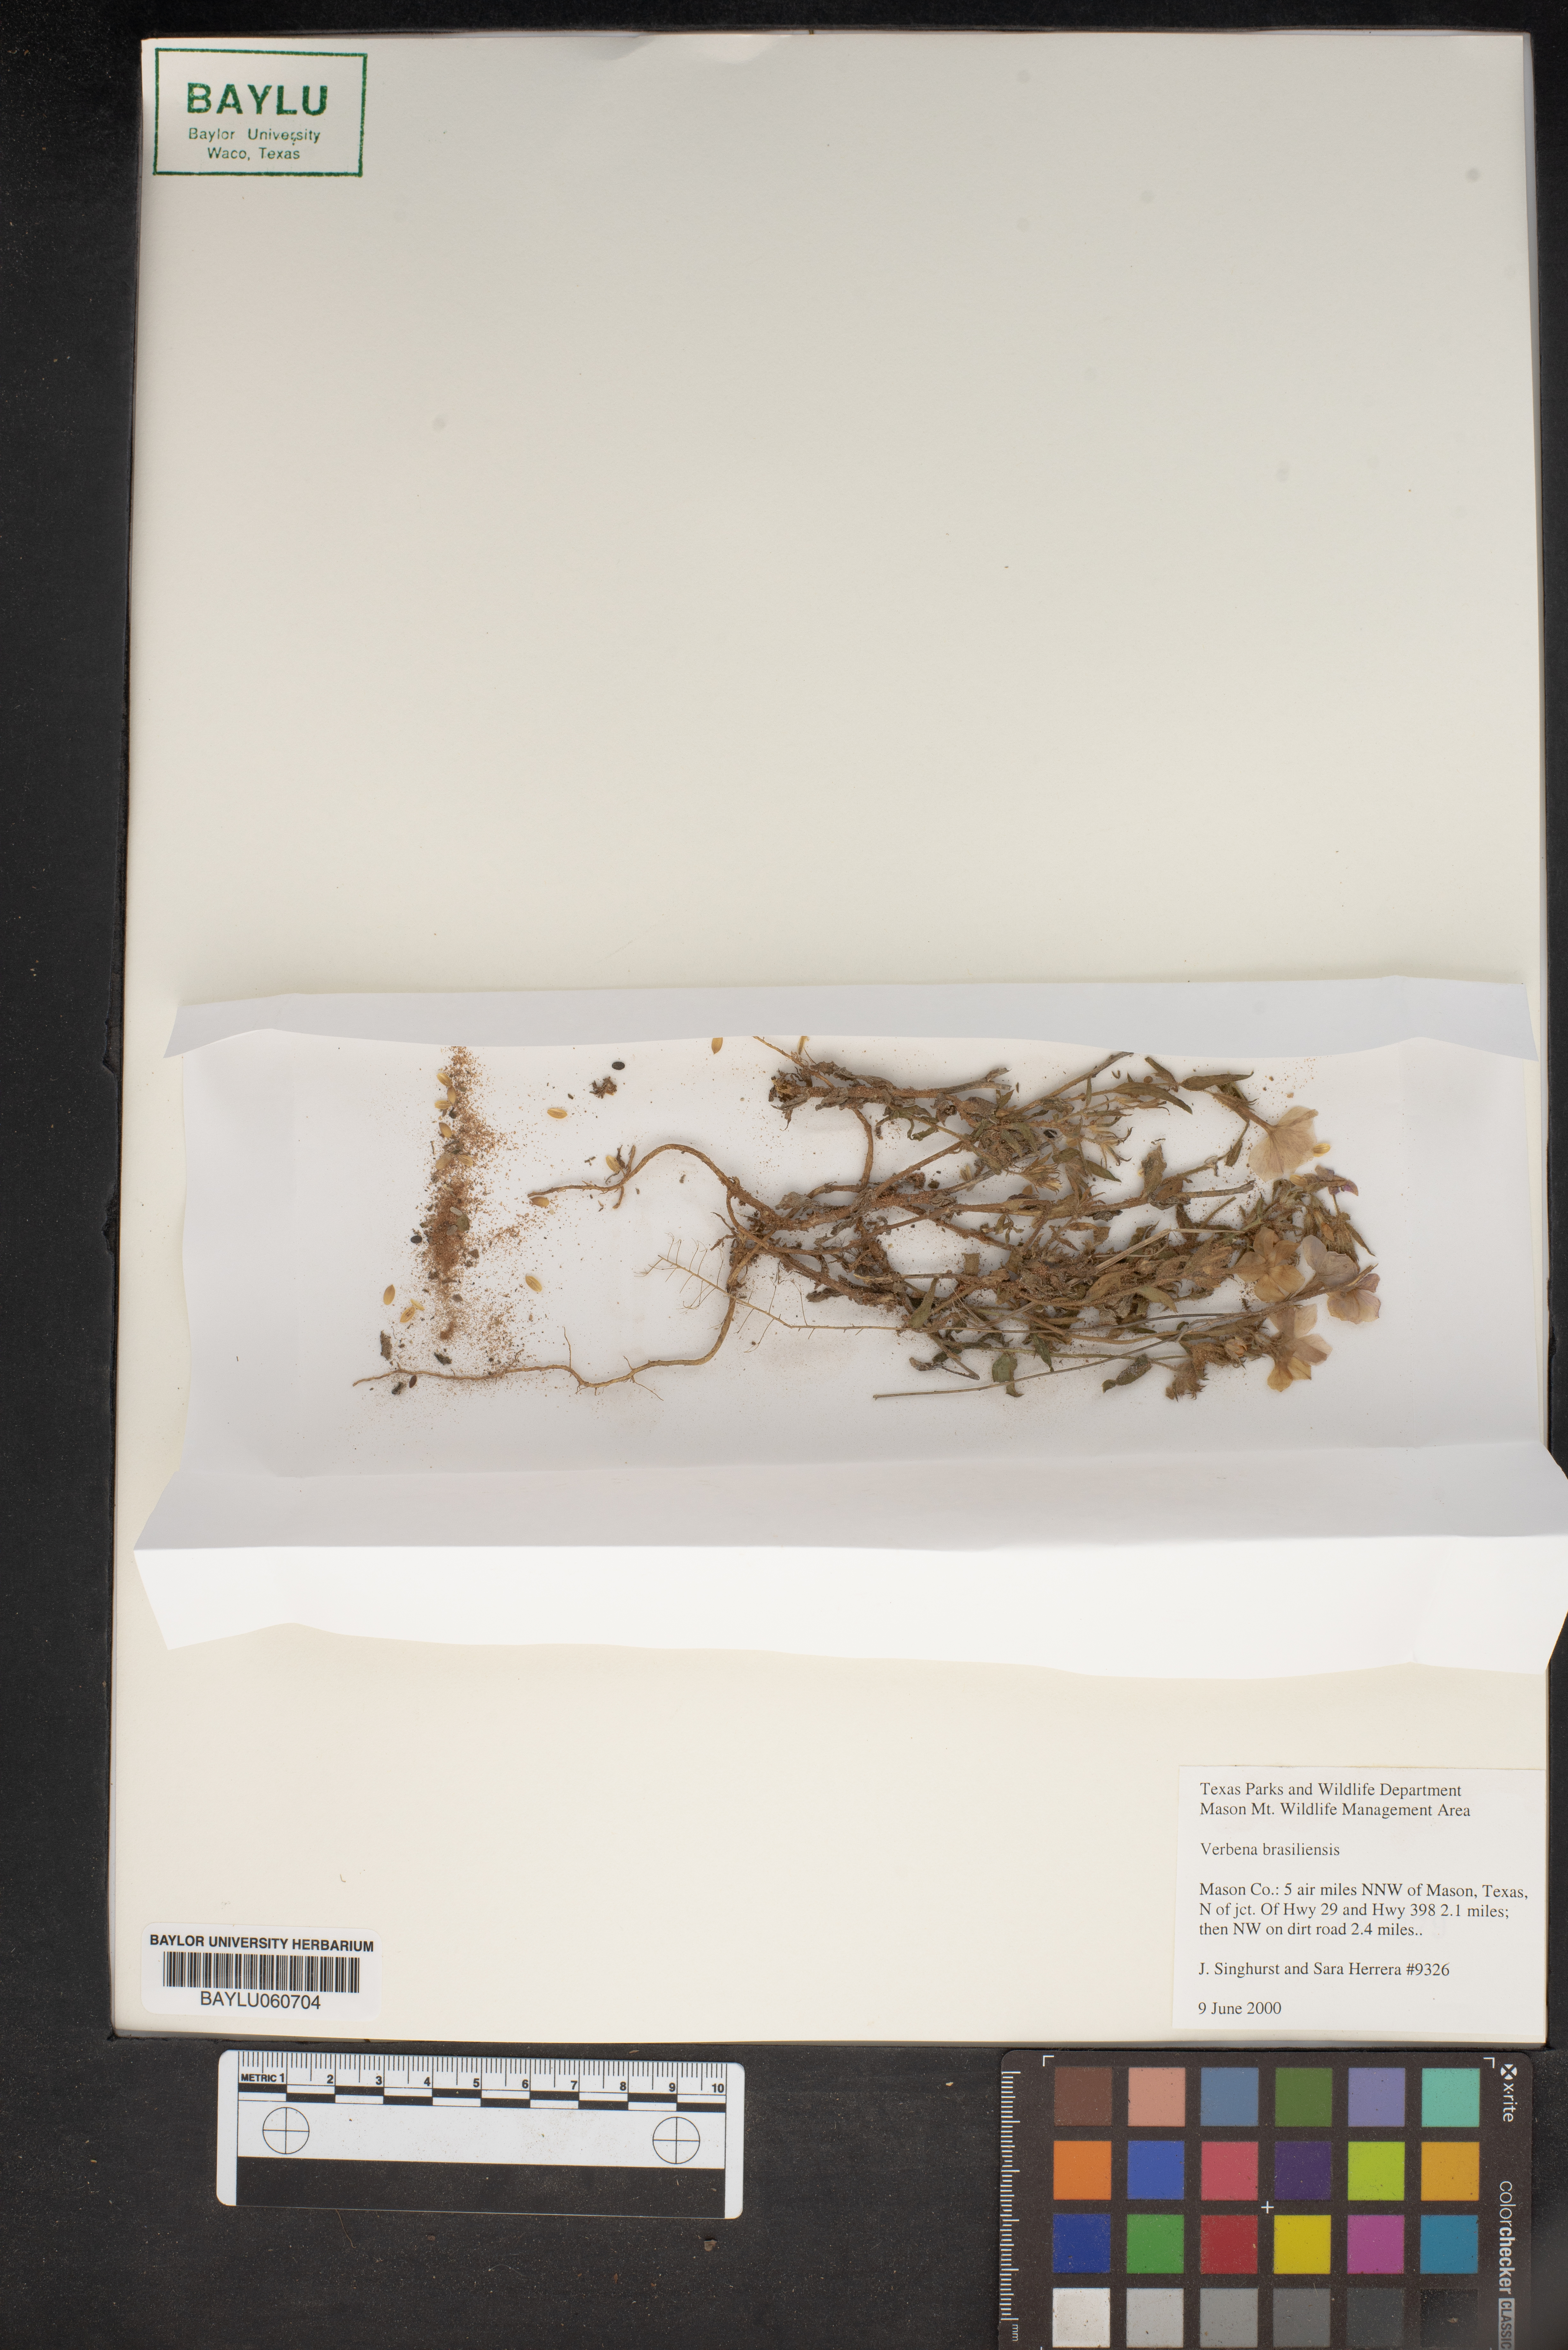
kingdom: Plantae
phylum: Tracheophyta
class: Magnoliopsida
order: Lamiales
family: Verbenaceae
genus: Verbena
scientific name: Verbena brasiliensis
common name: Brazilian vervain
